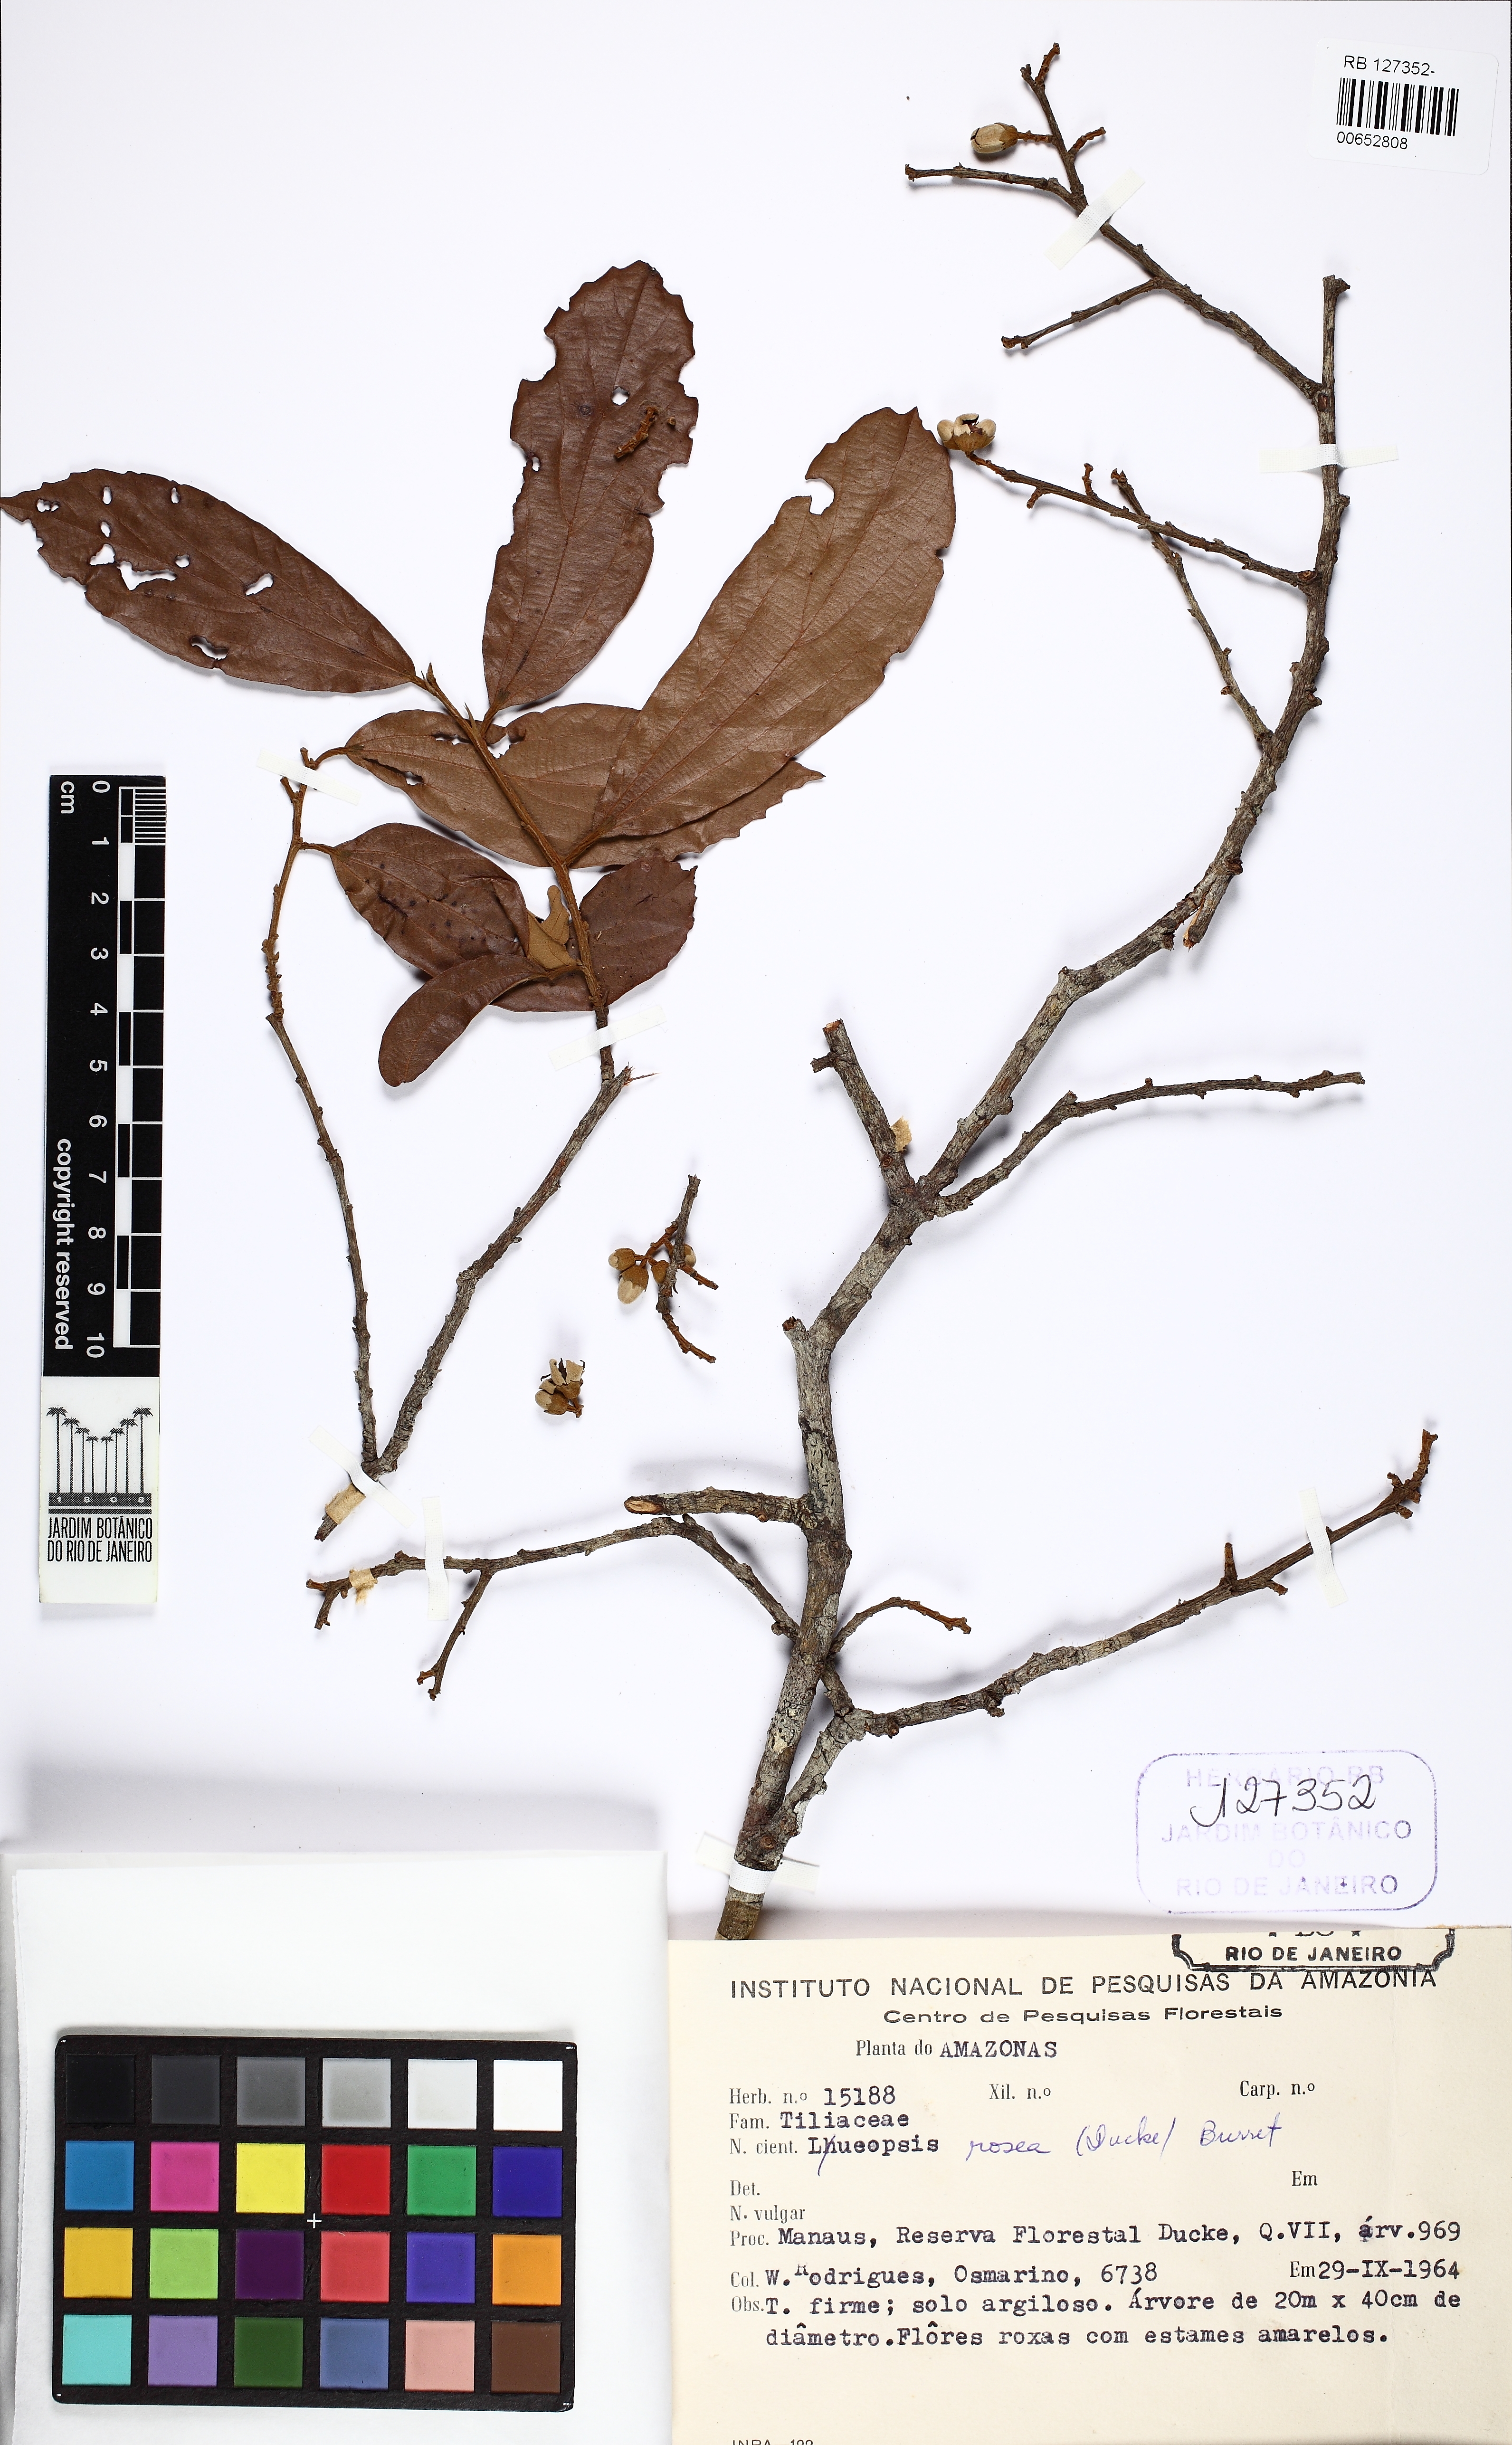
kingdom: Plantae
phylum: Tracheophyta
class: Magnoliopsida
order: Malvales
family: Malvaceae
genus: Lueheopsis
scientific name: Lueheopsis rosea
